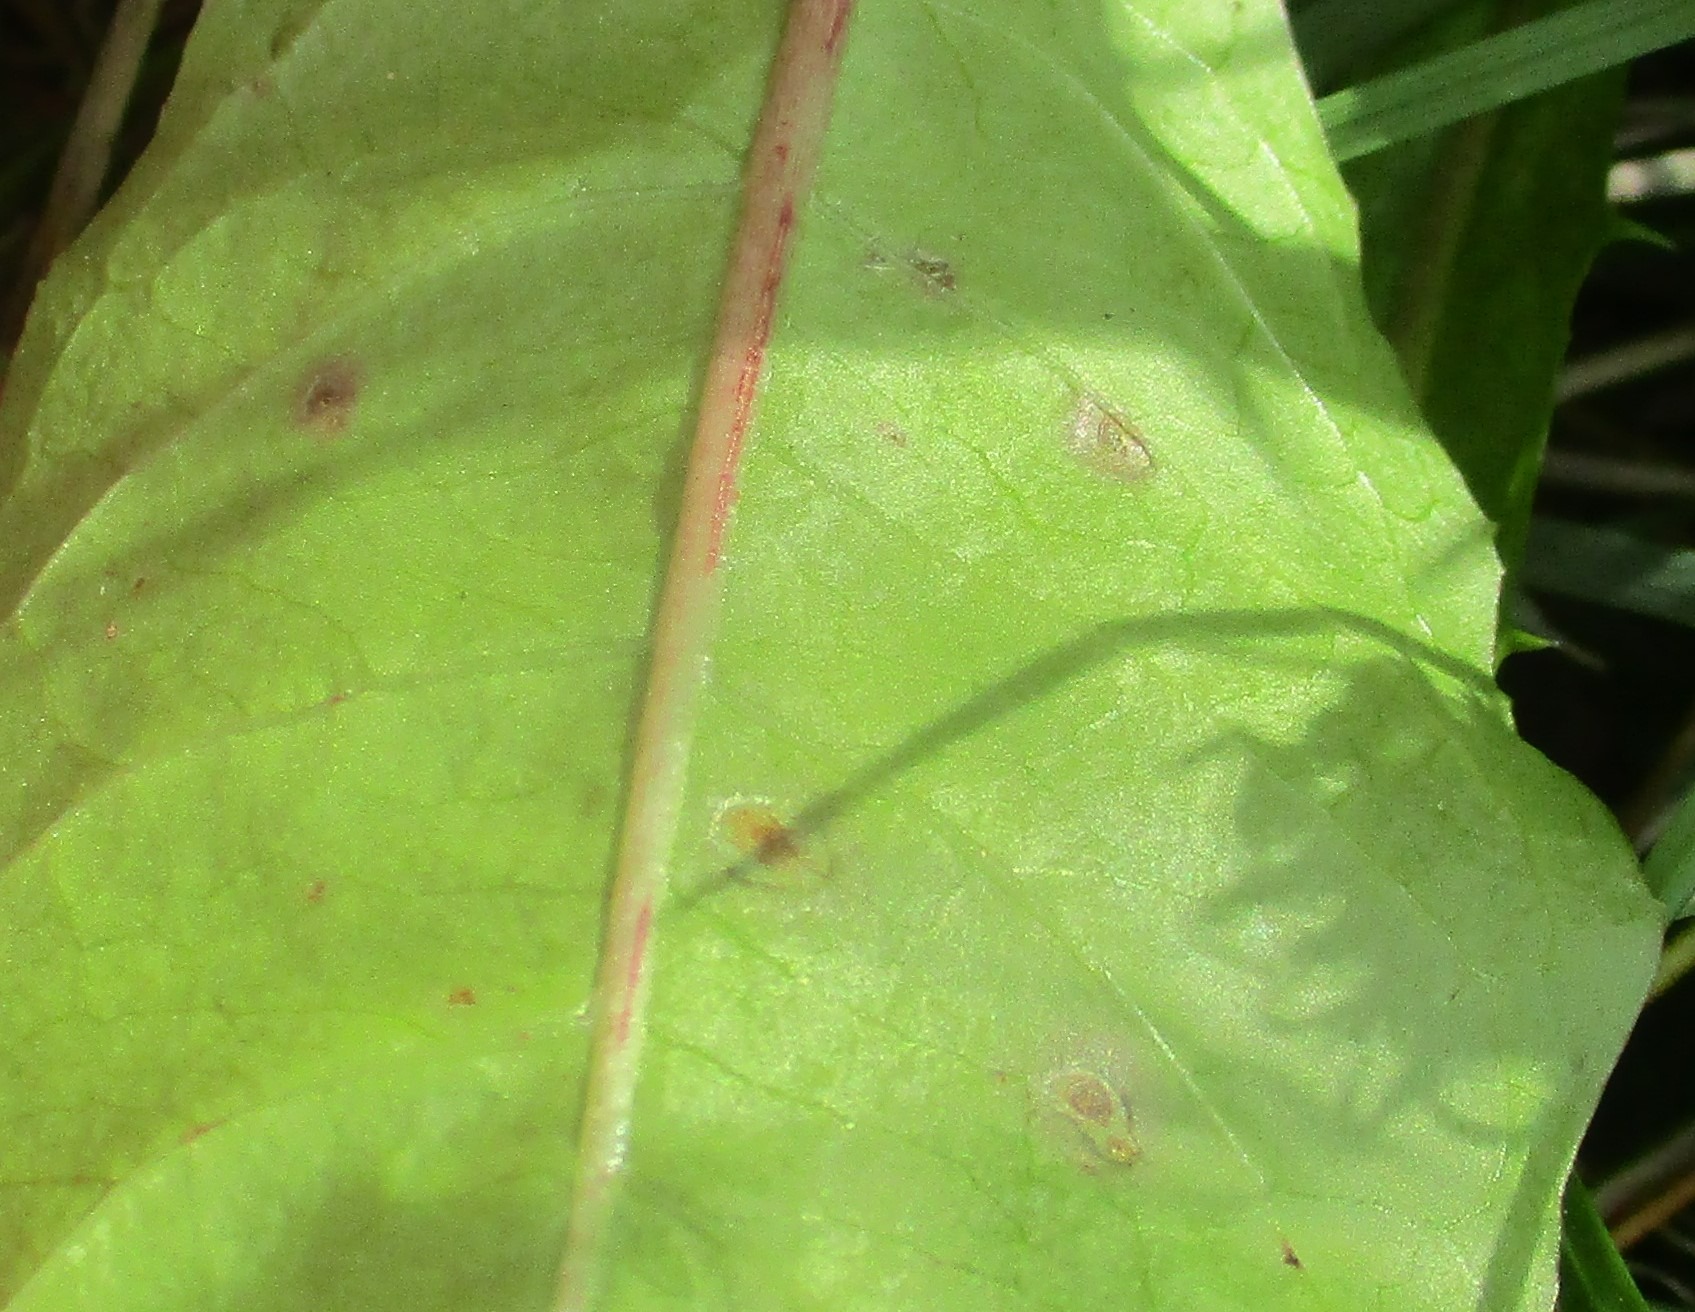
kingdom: Plantae
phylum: Tracheophyta
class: Magnoliopsida
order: Asterales
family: Asteraceae
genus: Taraxacum
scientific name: Taraxacum
